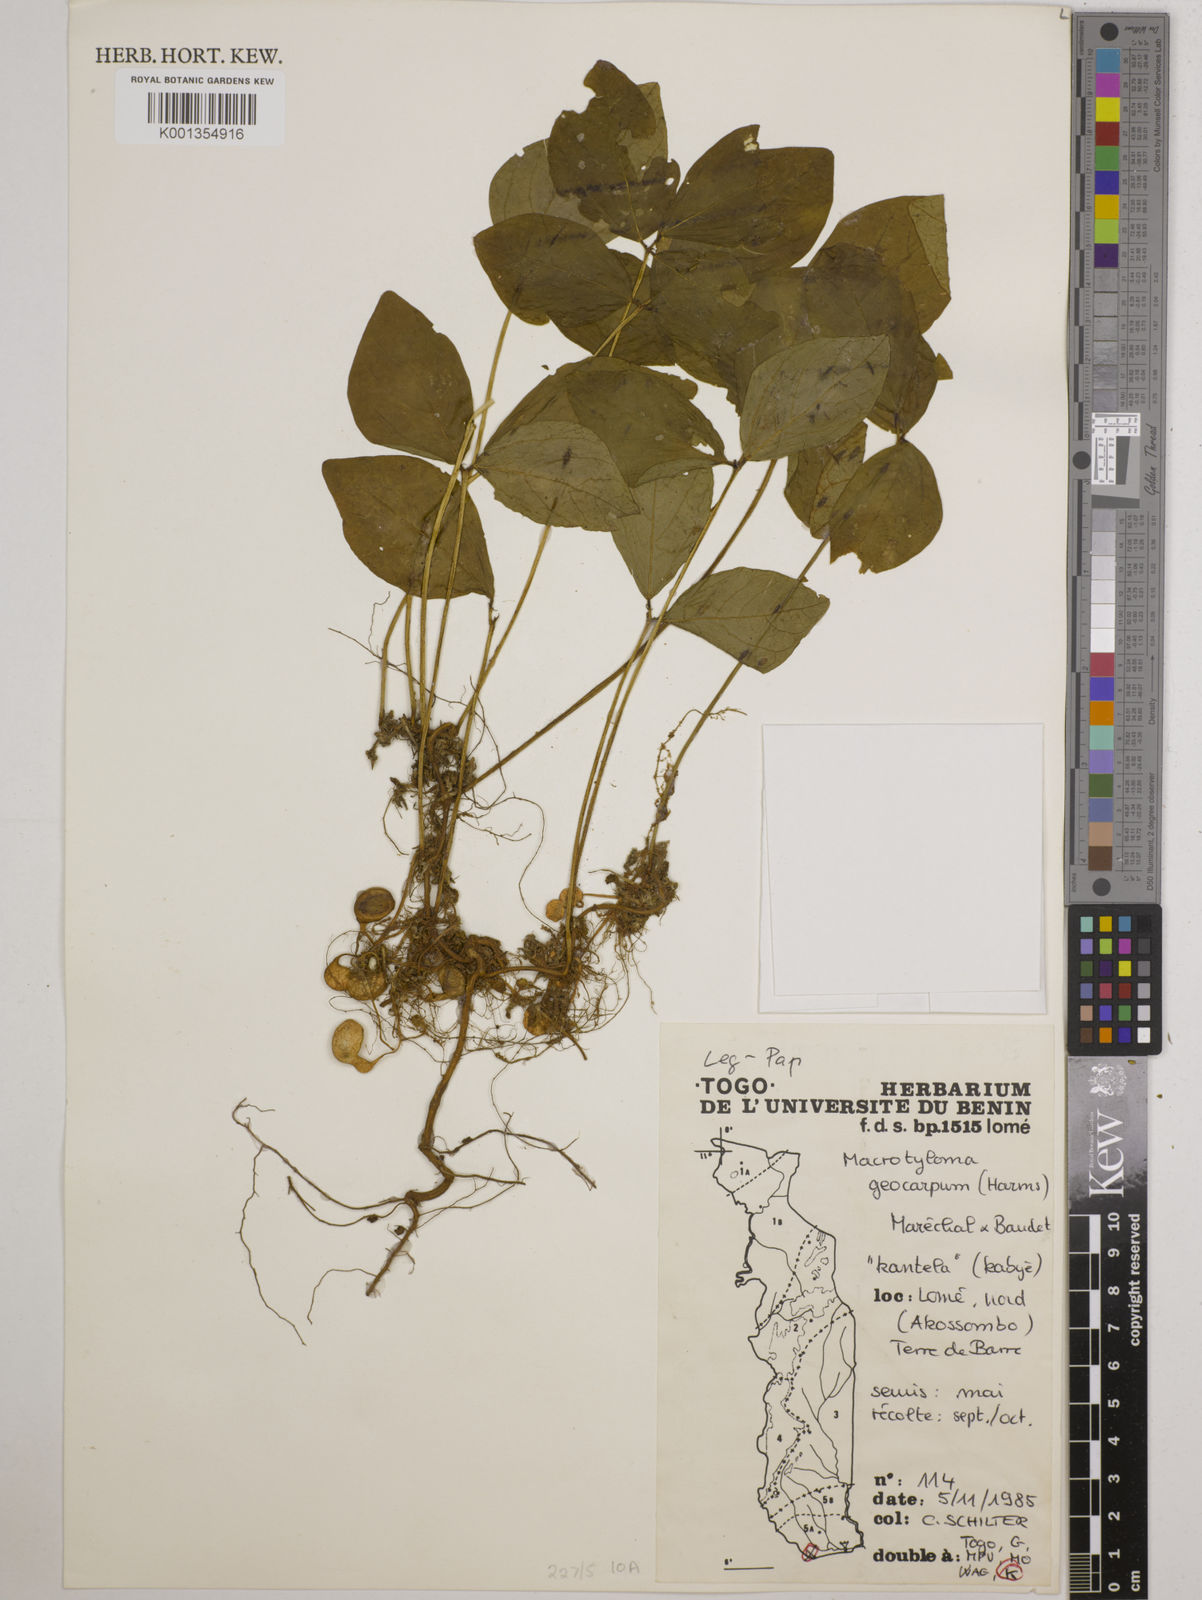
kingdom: Plantae
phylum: Tracheophyta
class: Magnoliopsida
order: Fabales
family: Fabaceae
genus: Macrotyloma
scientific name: Macrotyloma geocarpum
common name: Ground-bean
